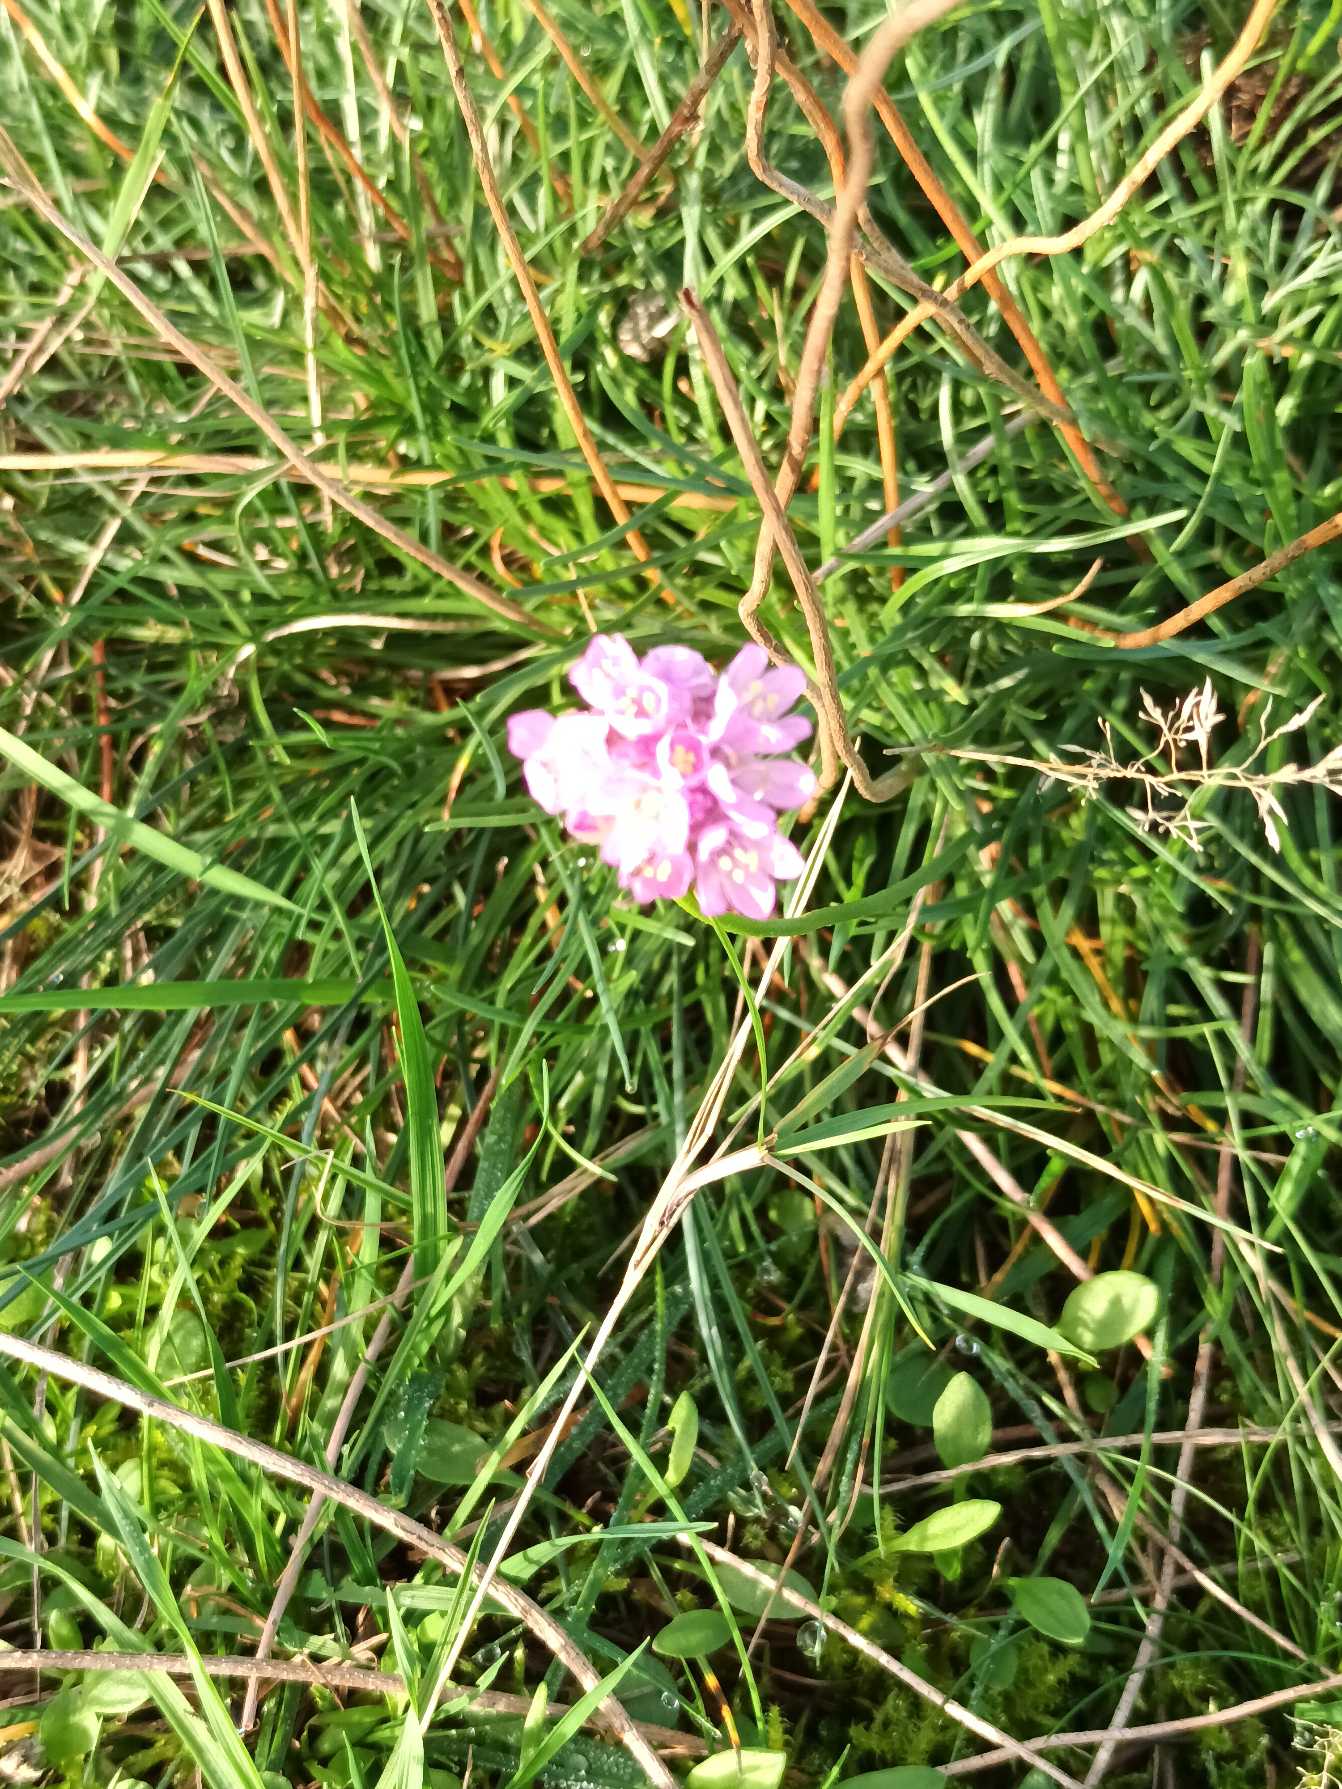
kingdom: Plantae
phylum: Tracheophyta
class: Magnoliopsida
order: Caryophyllales
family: Plumbaginaceae
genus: Armeria
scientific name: Armeria maritima
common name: Engelskgræs
